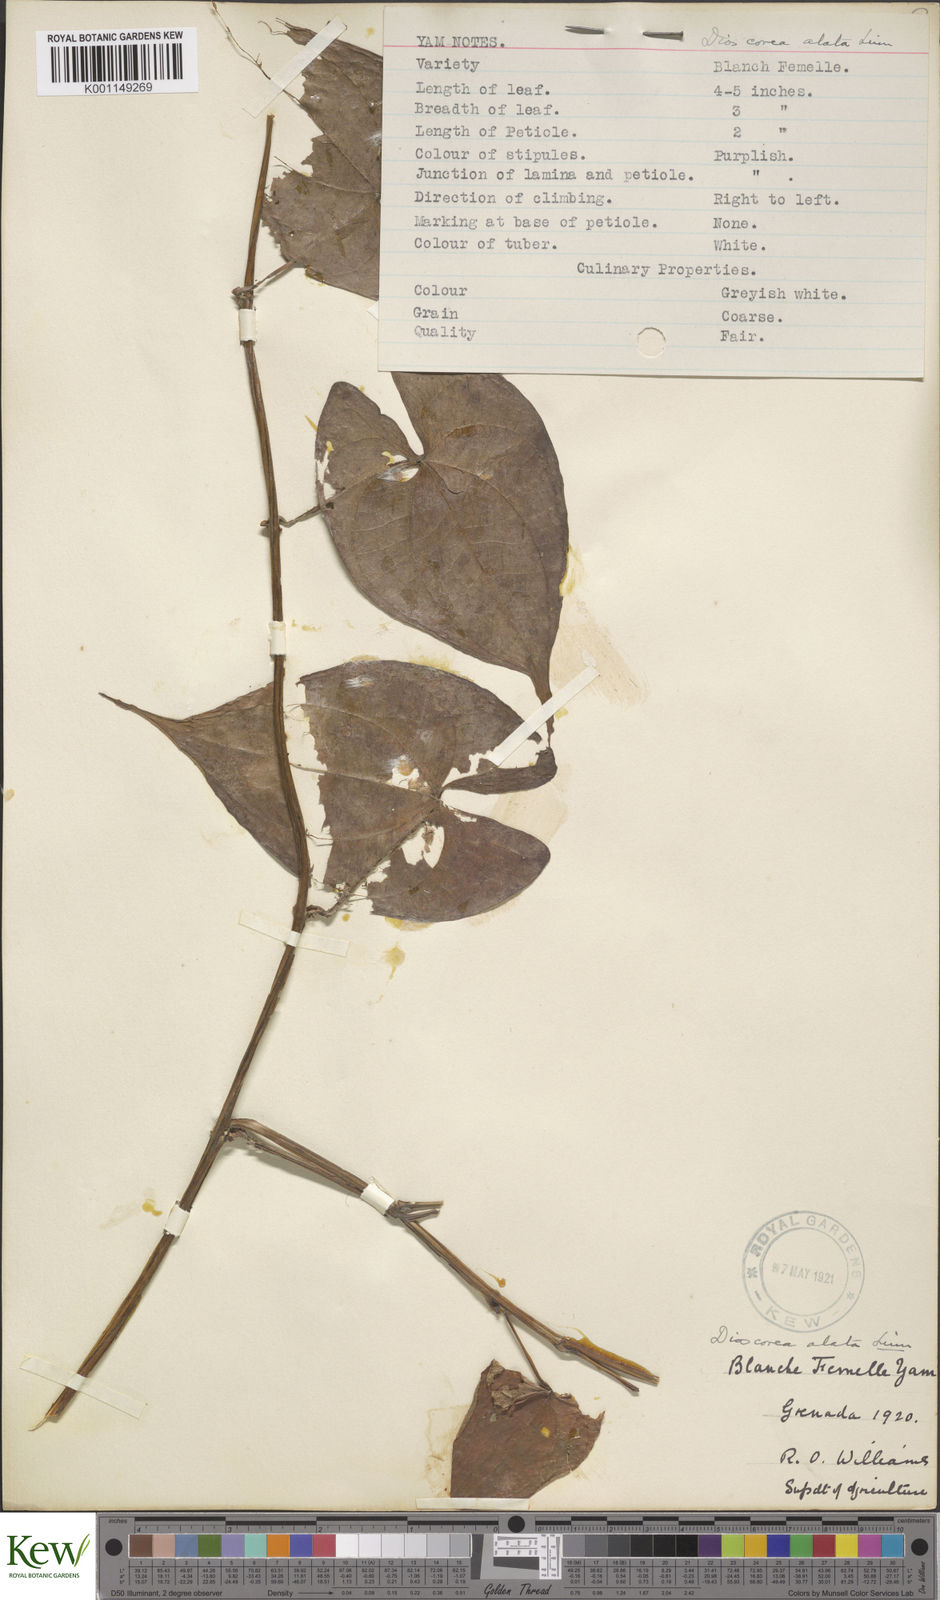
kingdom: Plantae
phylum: Tracheophyta
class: Liliopsida
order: Dioscoreales
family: Dioscoreaceae
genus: Dioscorea
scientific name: Dioscorea alata
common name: Water yam
